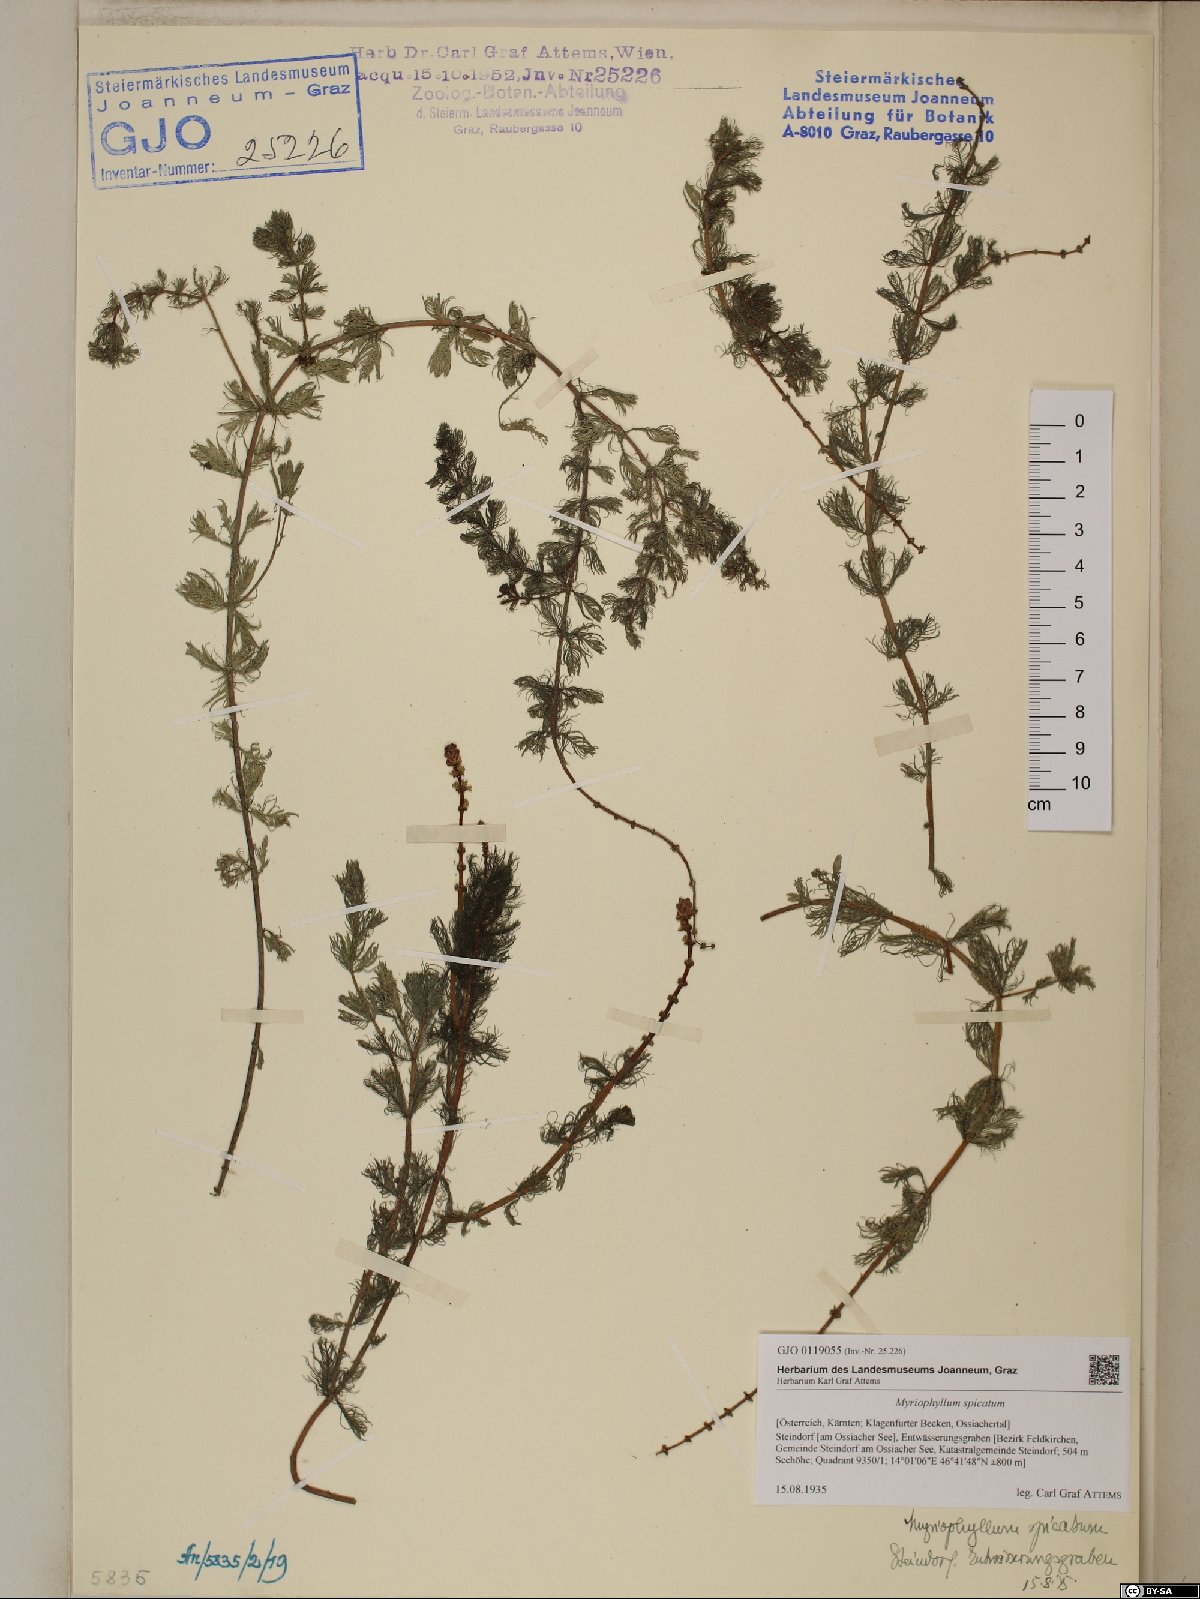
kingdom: Plantae
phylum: Tracheophyta
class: Magnoliopsida
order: Saxifragales
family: Haloragaceae
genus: Myriophyllum
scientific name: Myriophyllum spicatum
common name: Spiked water-milfoil
